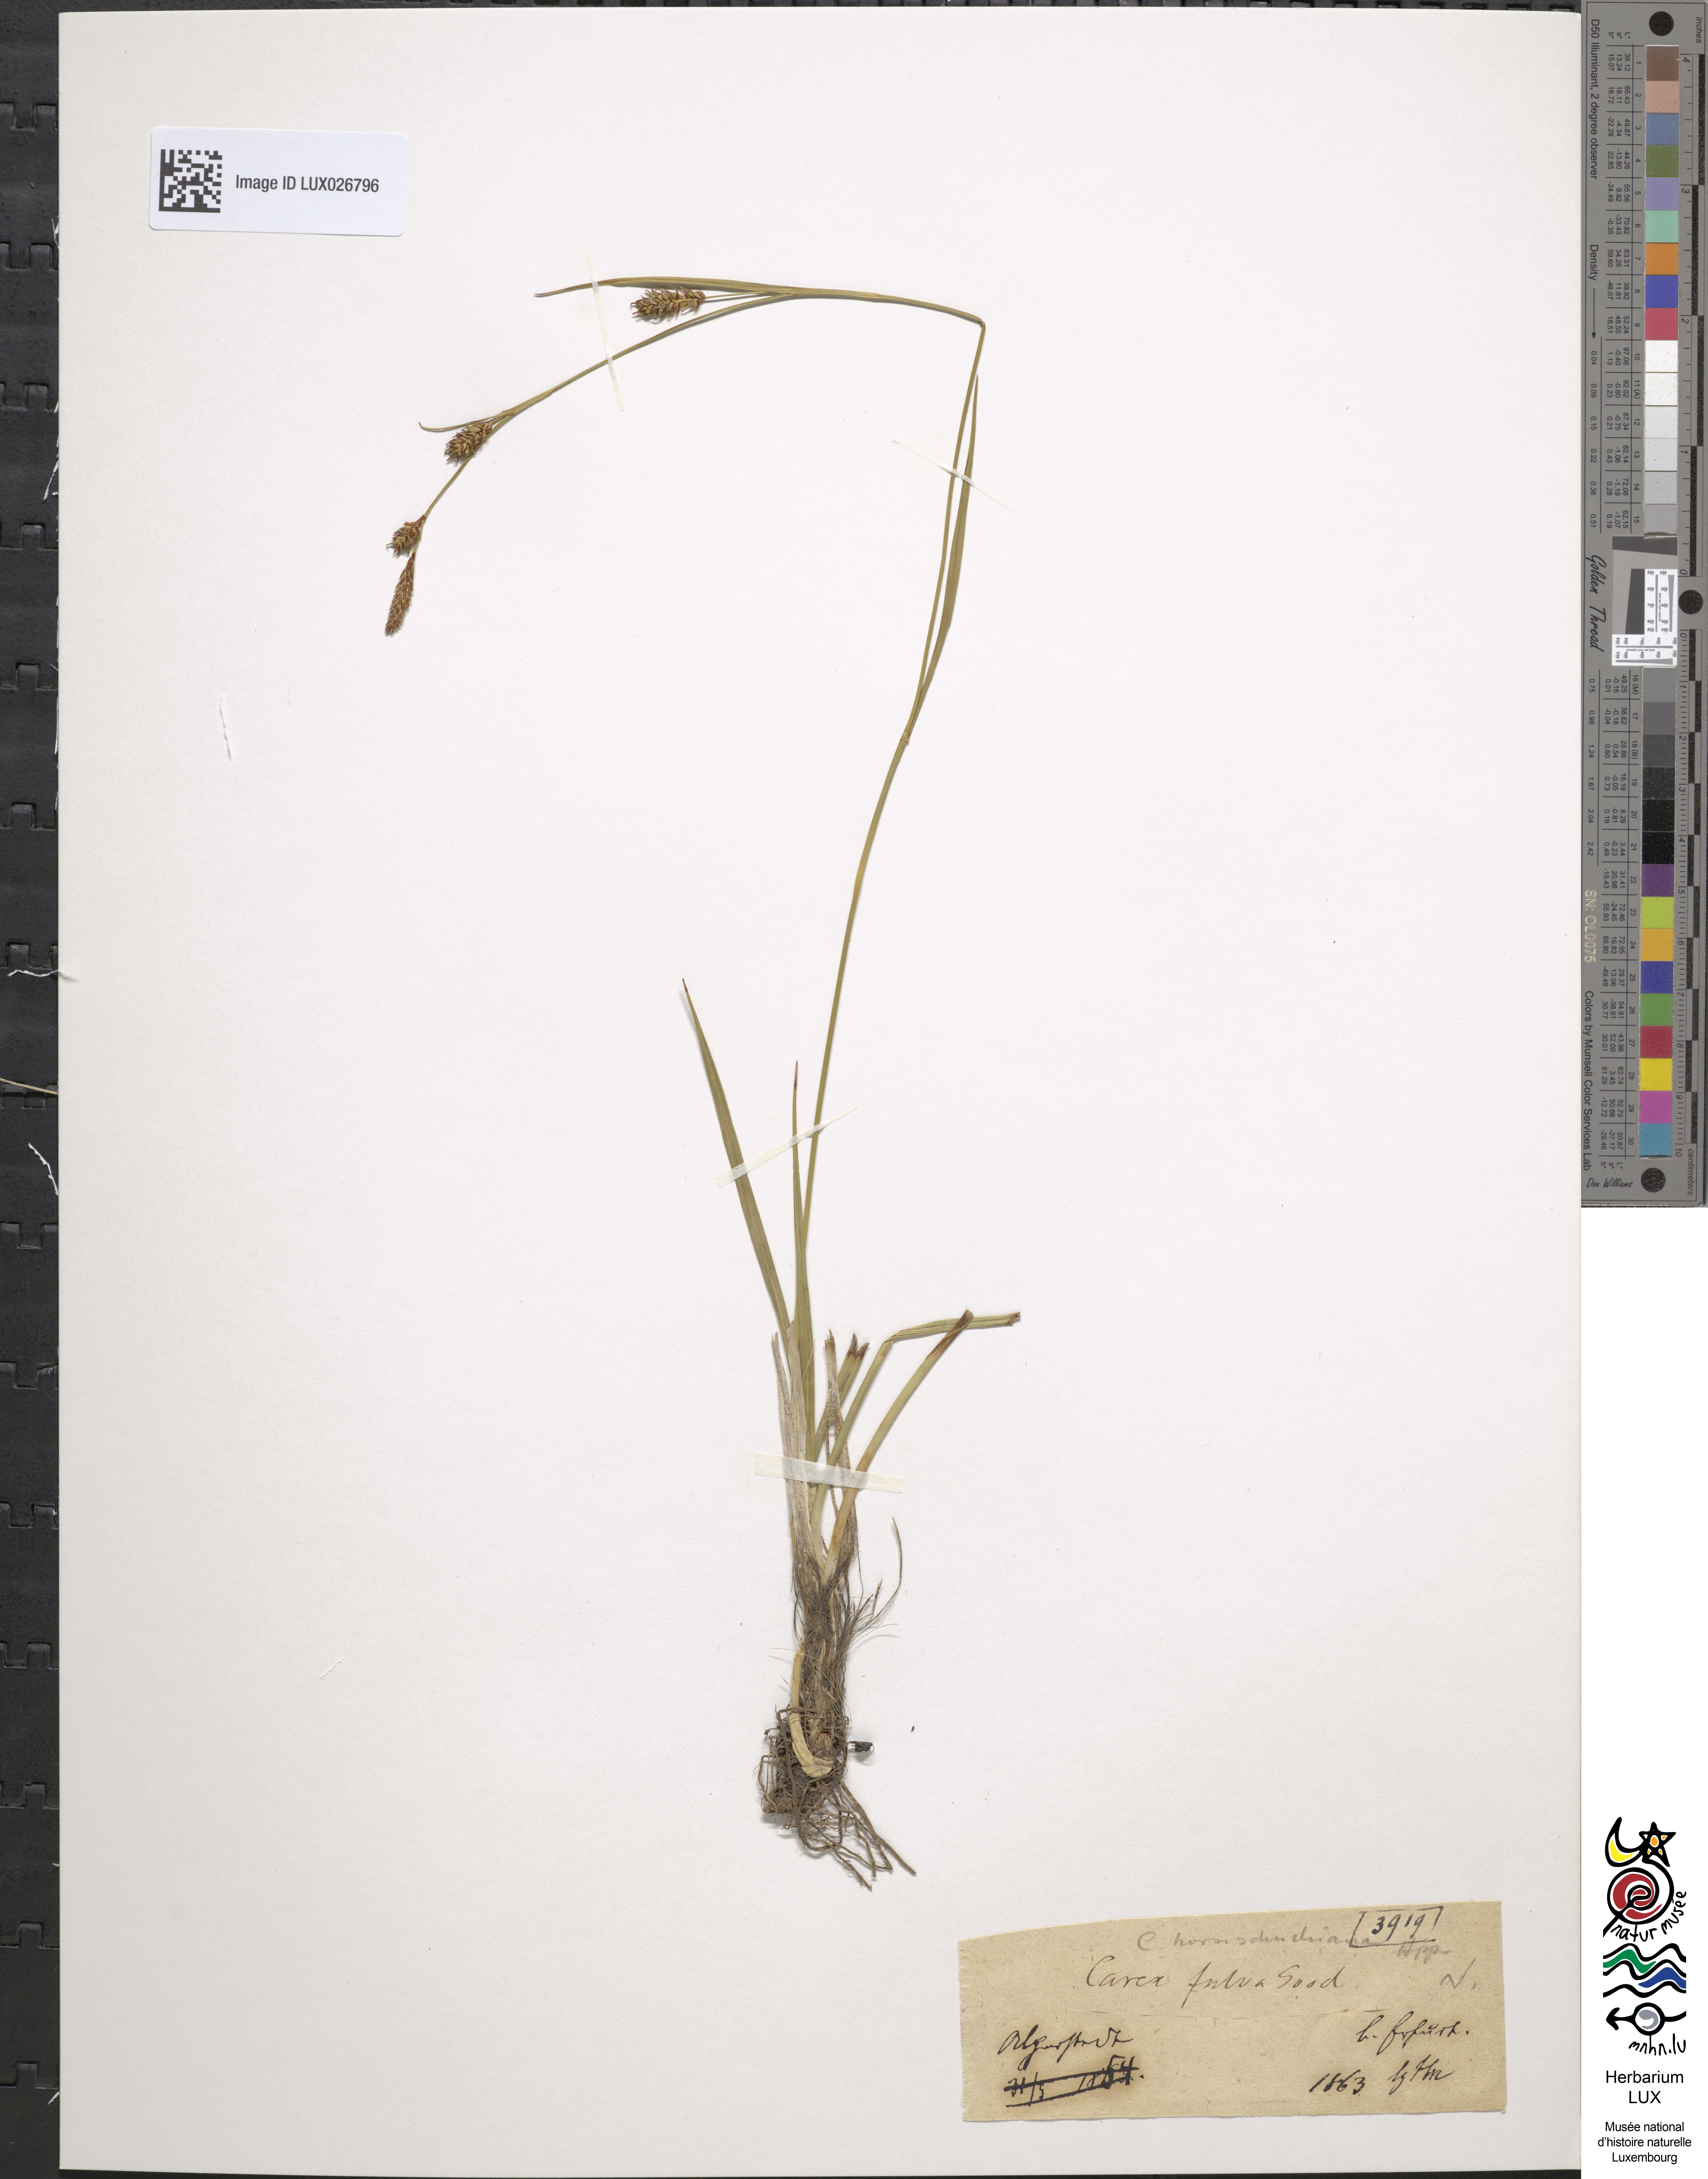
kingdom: Plantae
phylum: Tracheophyta
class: Liliopsida
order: Poales
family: Cyperaceae
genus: Carex
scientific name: Carex fulva
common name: Leutz's sedge
